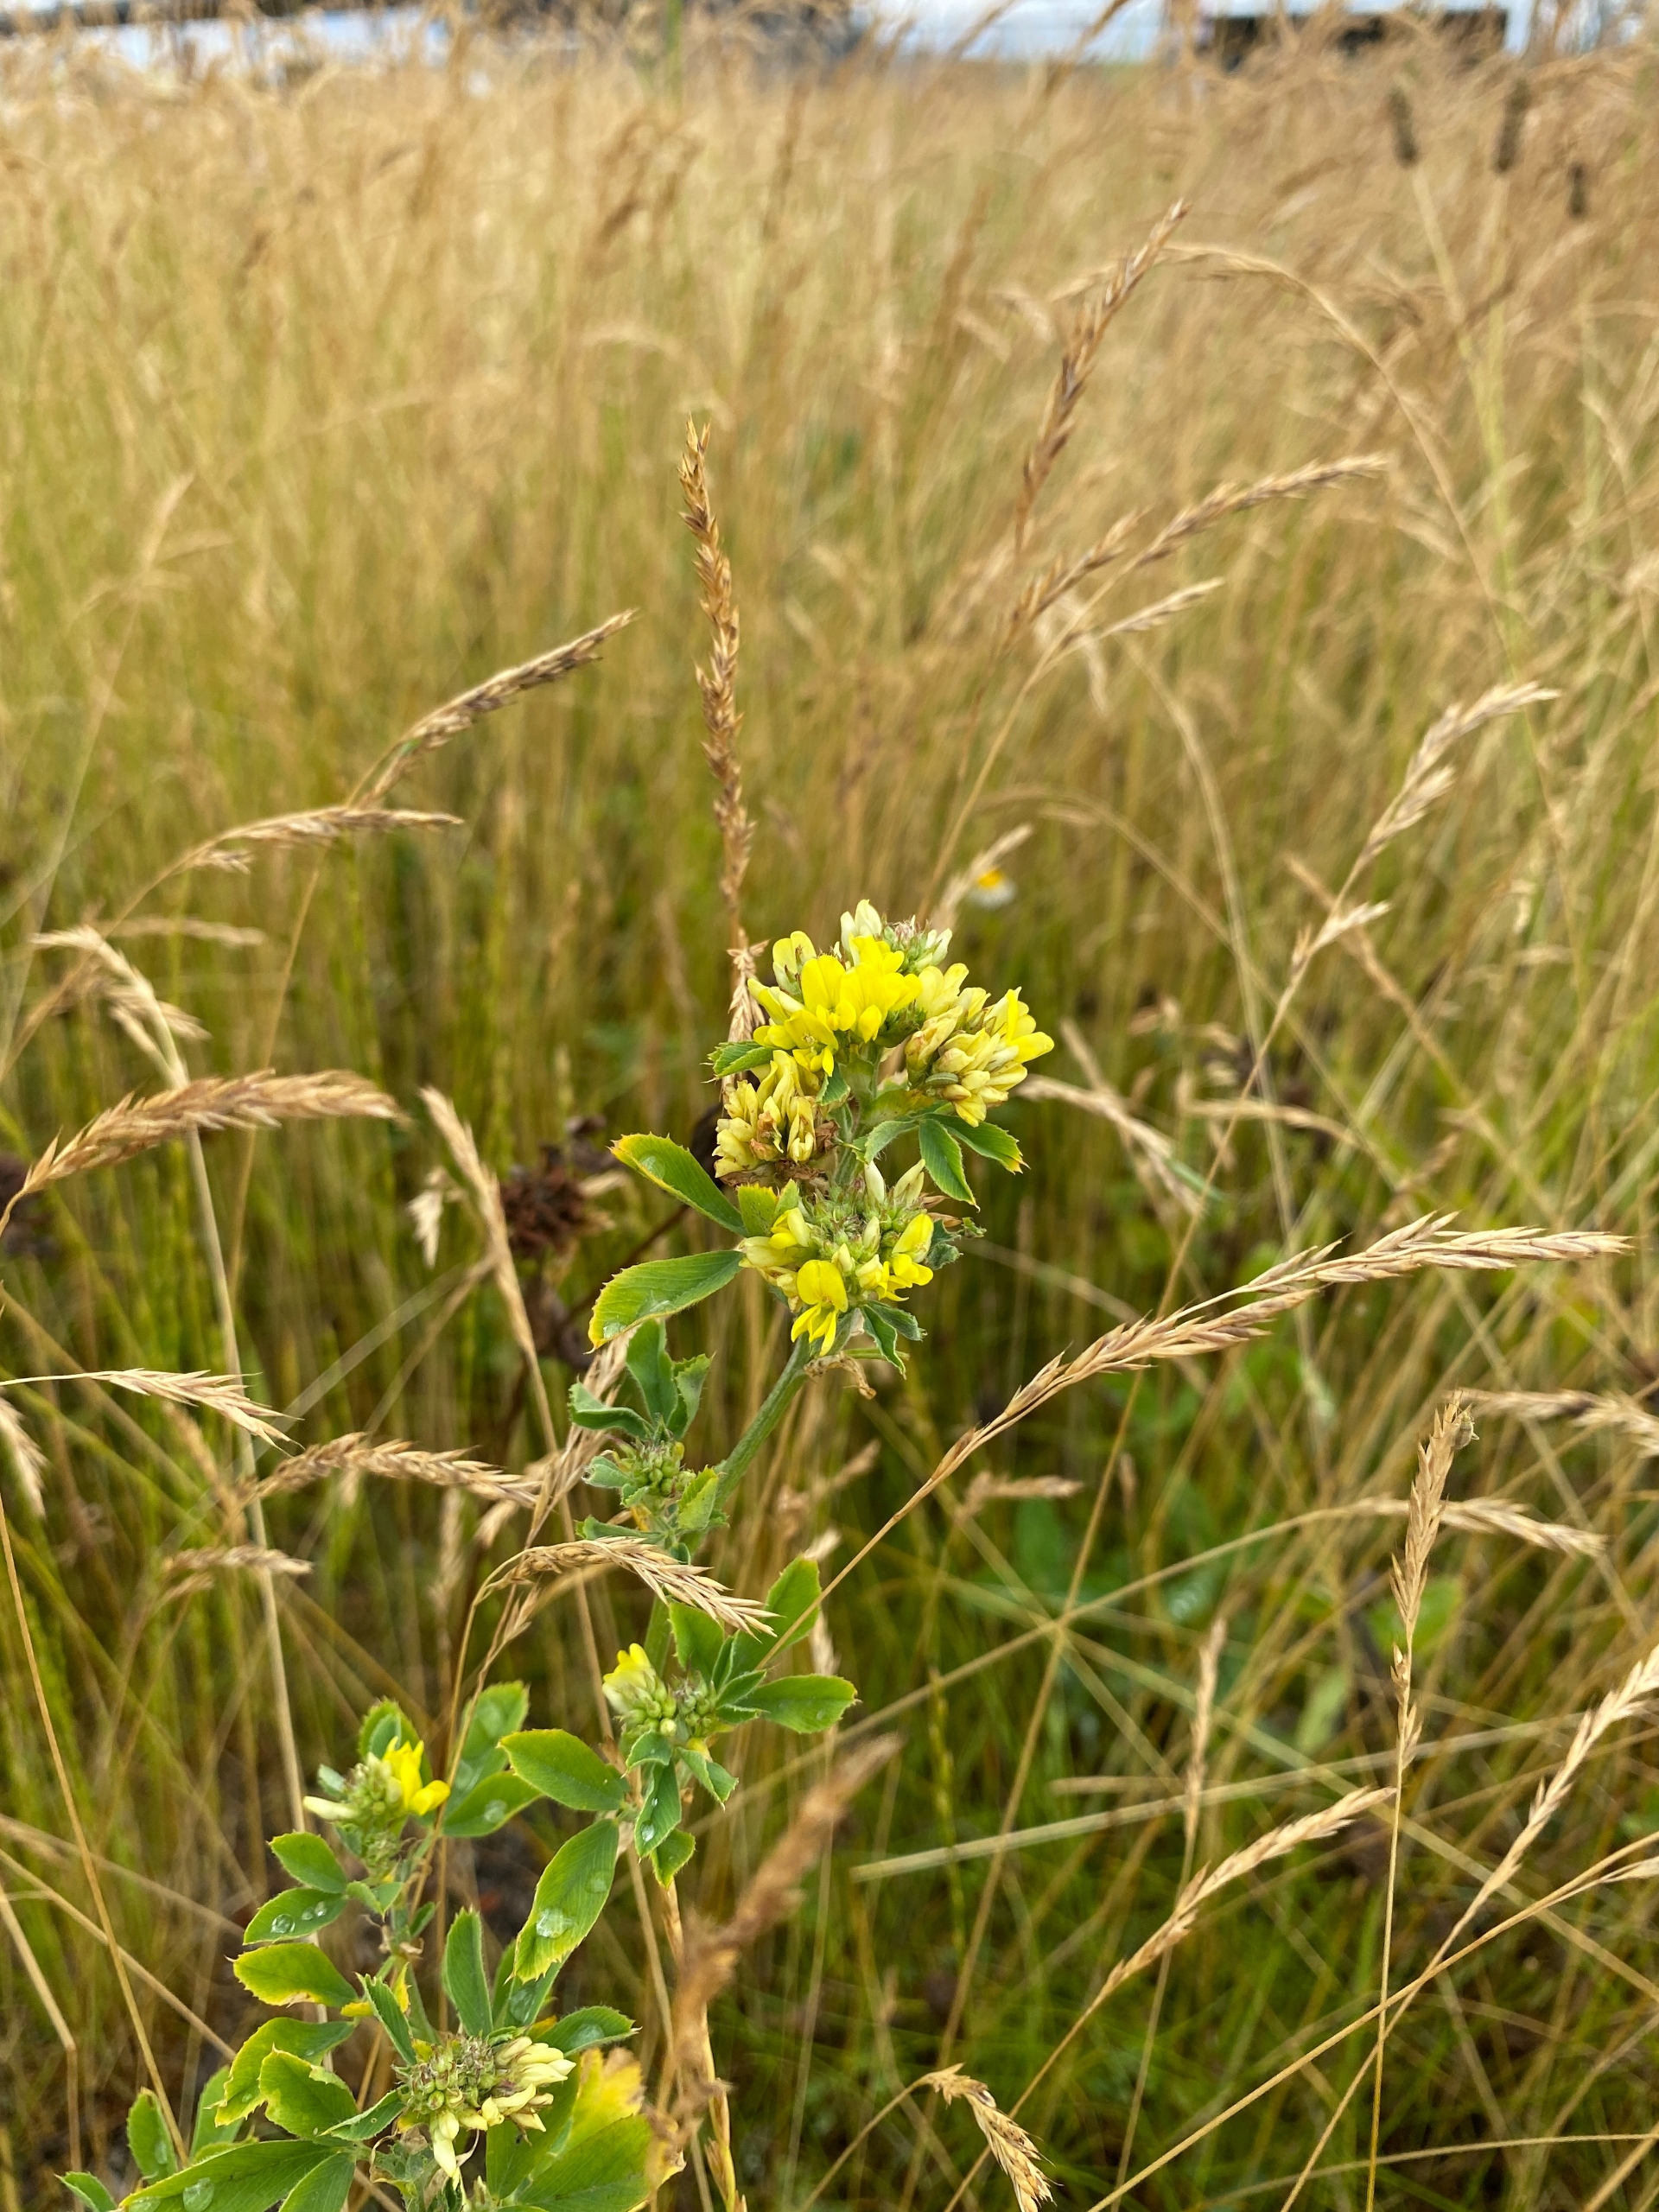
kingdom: Plantae
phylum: Tracheophyta
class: Magnoliopsida
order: Fabales
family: Fabaceae
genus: Medicago
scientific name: Medicago varia
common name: Sand-lucerne
